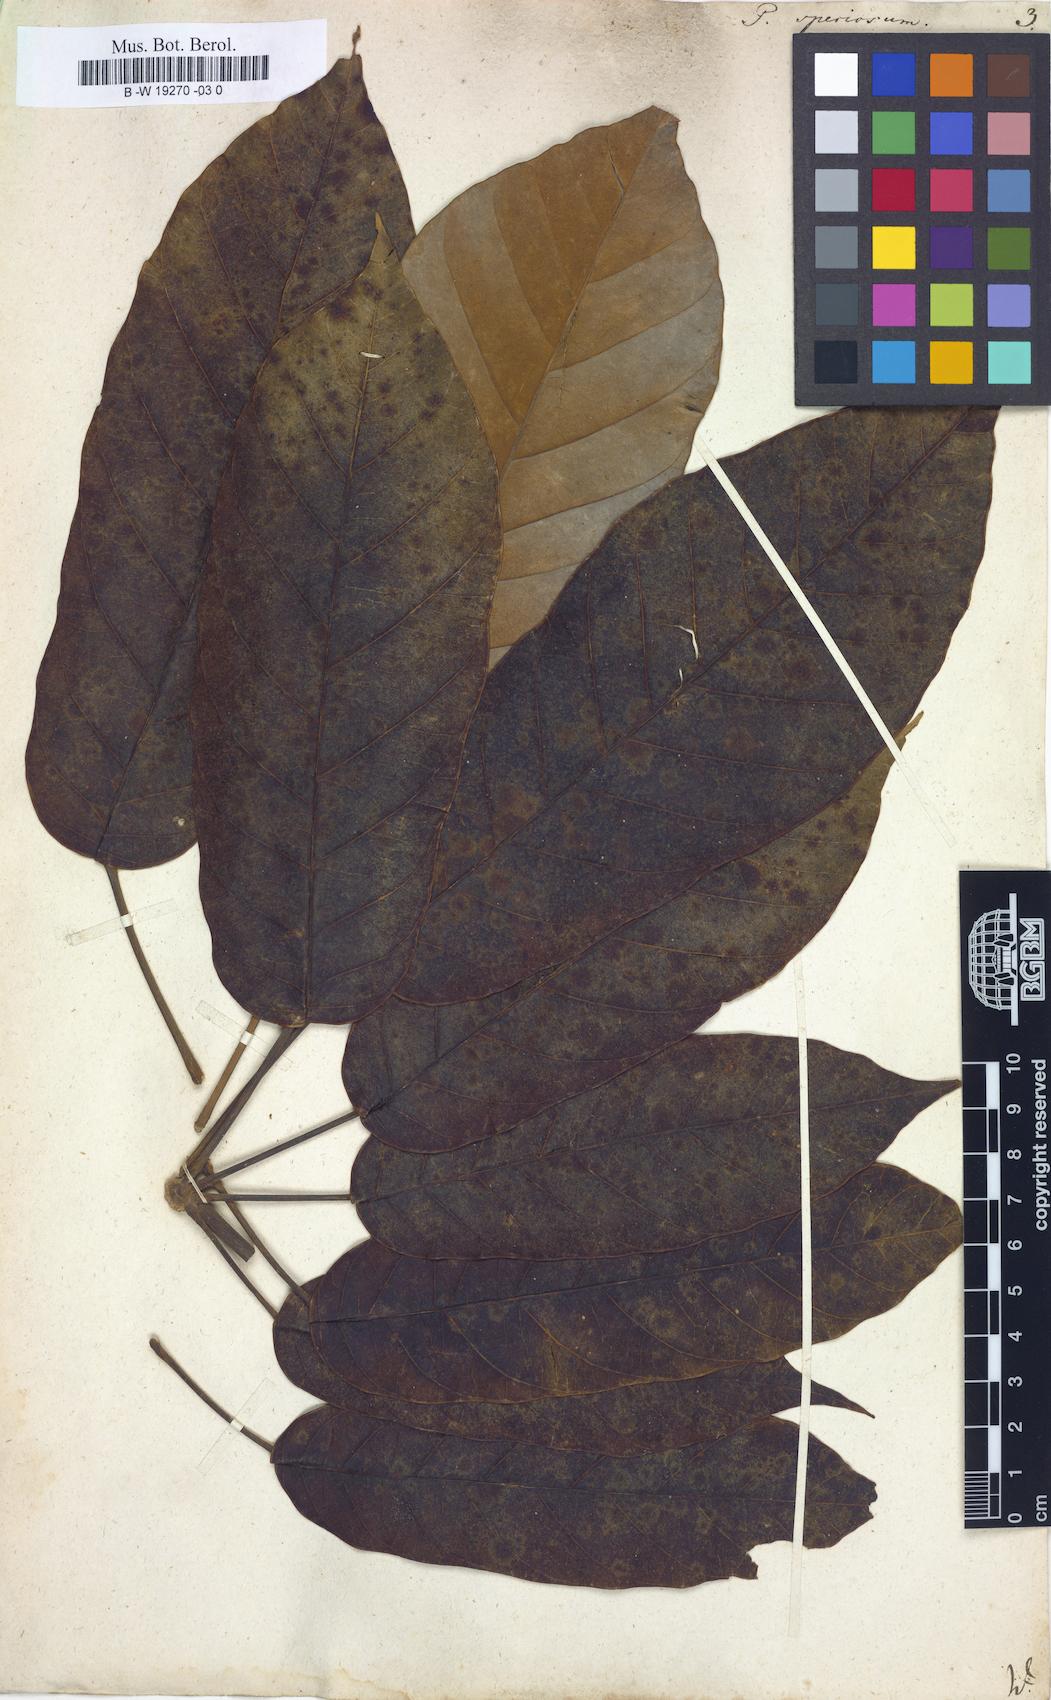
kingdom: Plantae
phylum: Tracheophyta
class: Magnoliopsida
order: Apiales
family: Araliaceae
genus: Didymopanax
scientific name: Didymopanax morototoni
